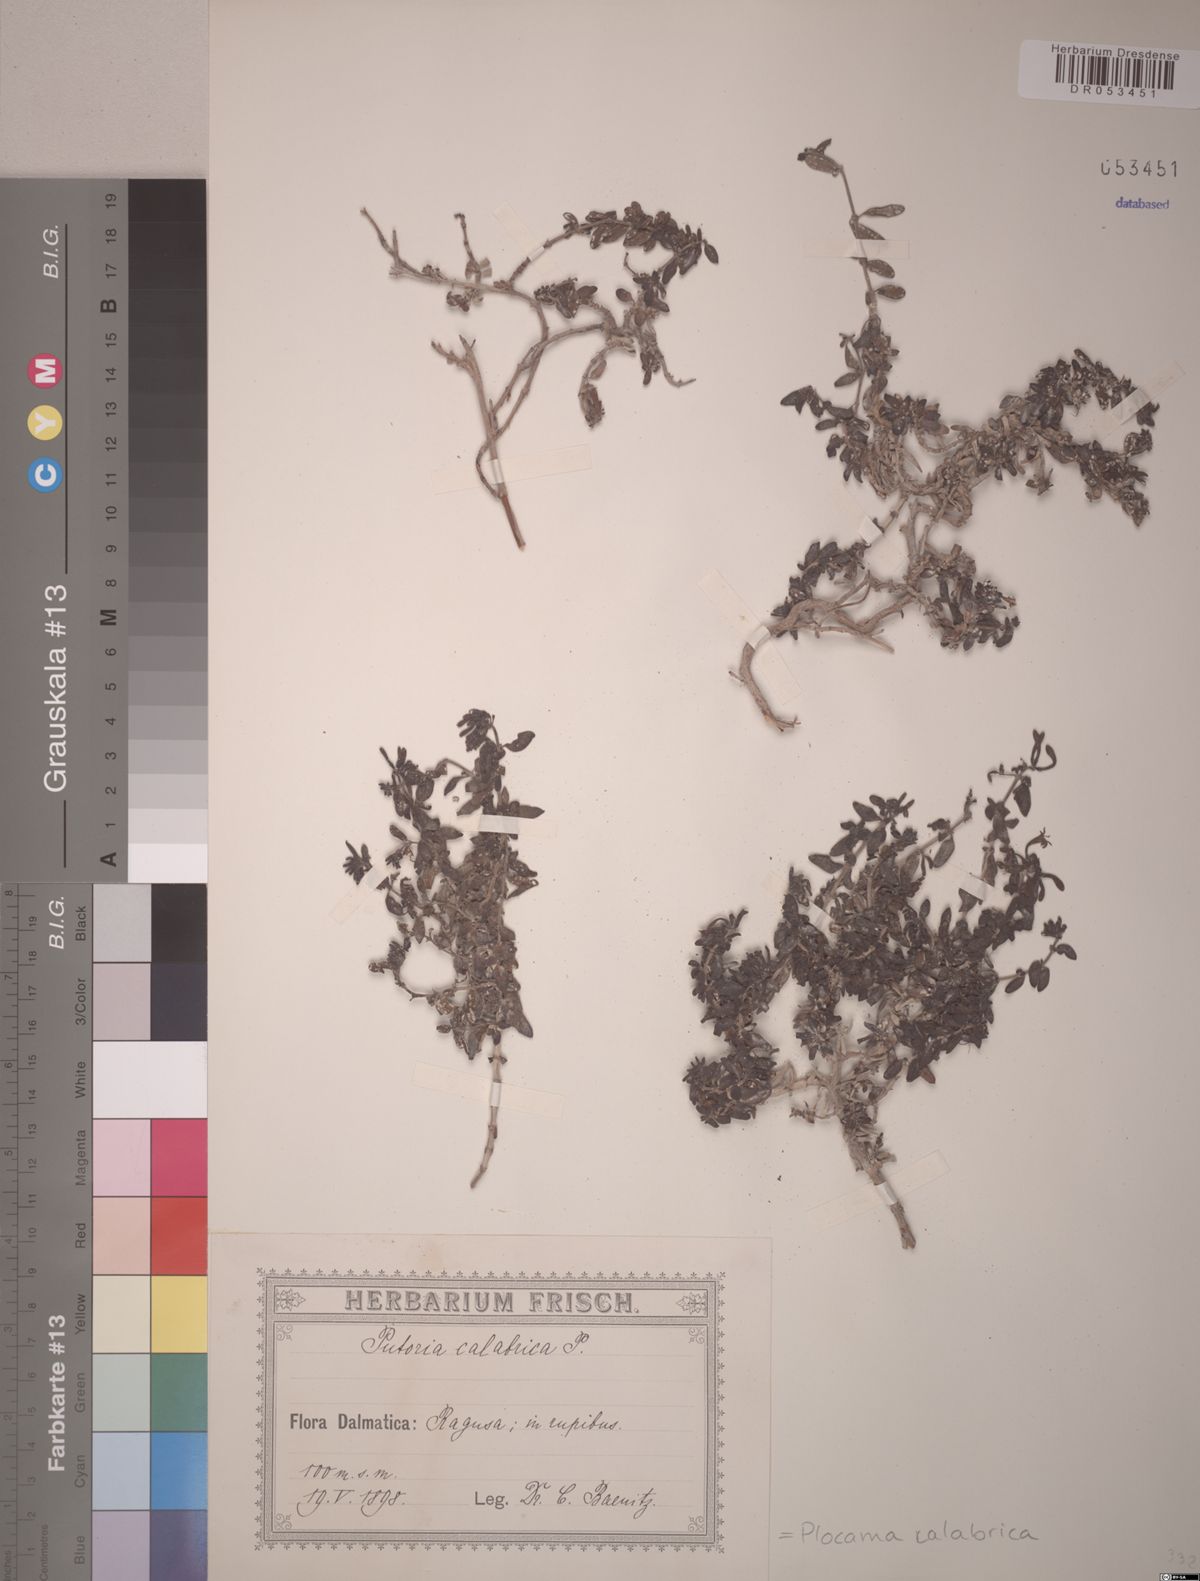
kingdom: Plantae
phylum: Tracheophyta
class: Magnoliopsida
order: Gentianales
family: Rubiaceae
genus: Plocama
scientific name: Plocama calabrica
